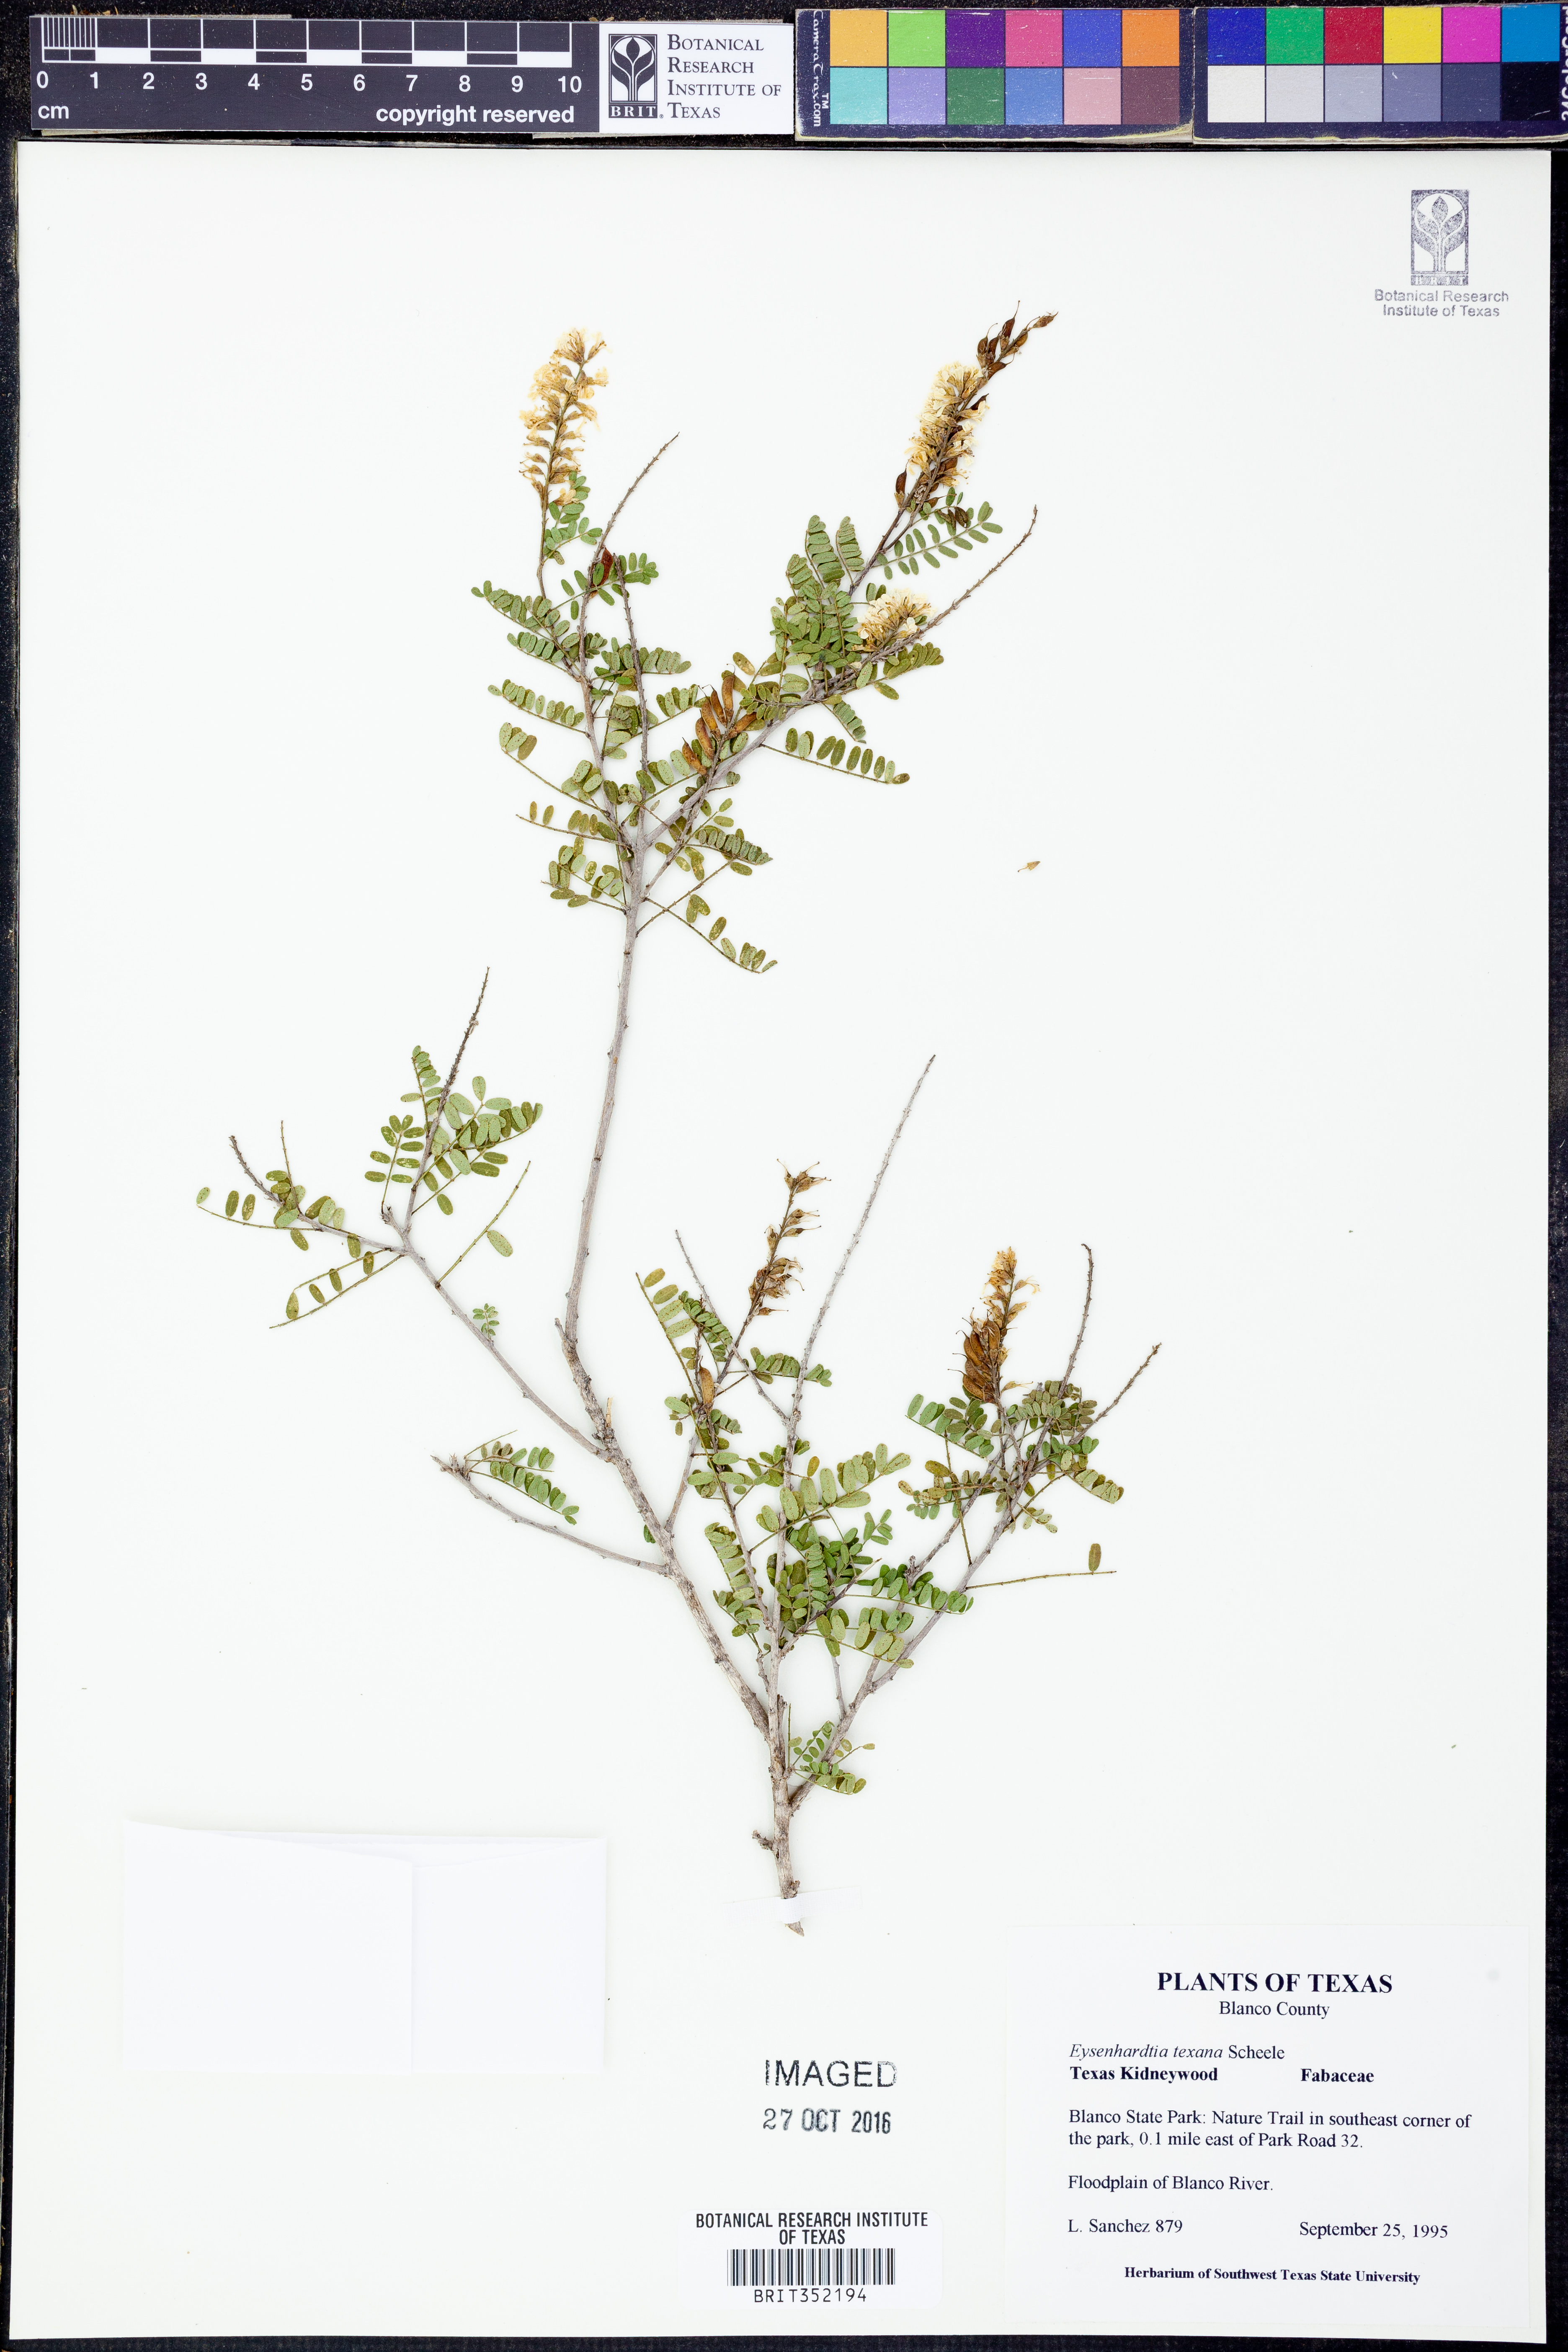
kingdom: Plantae
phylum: Tracheophyta
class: Magnoliopsida
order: Fabales
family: Fabaceae
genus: Eysenhardtia
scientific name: Eysenhardtia texana
